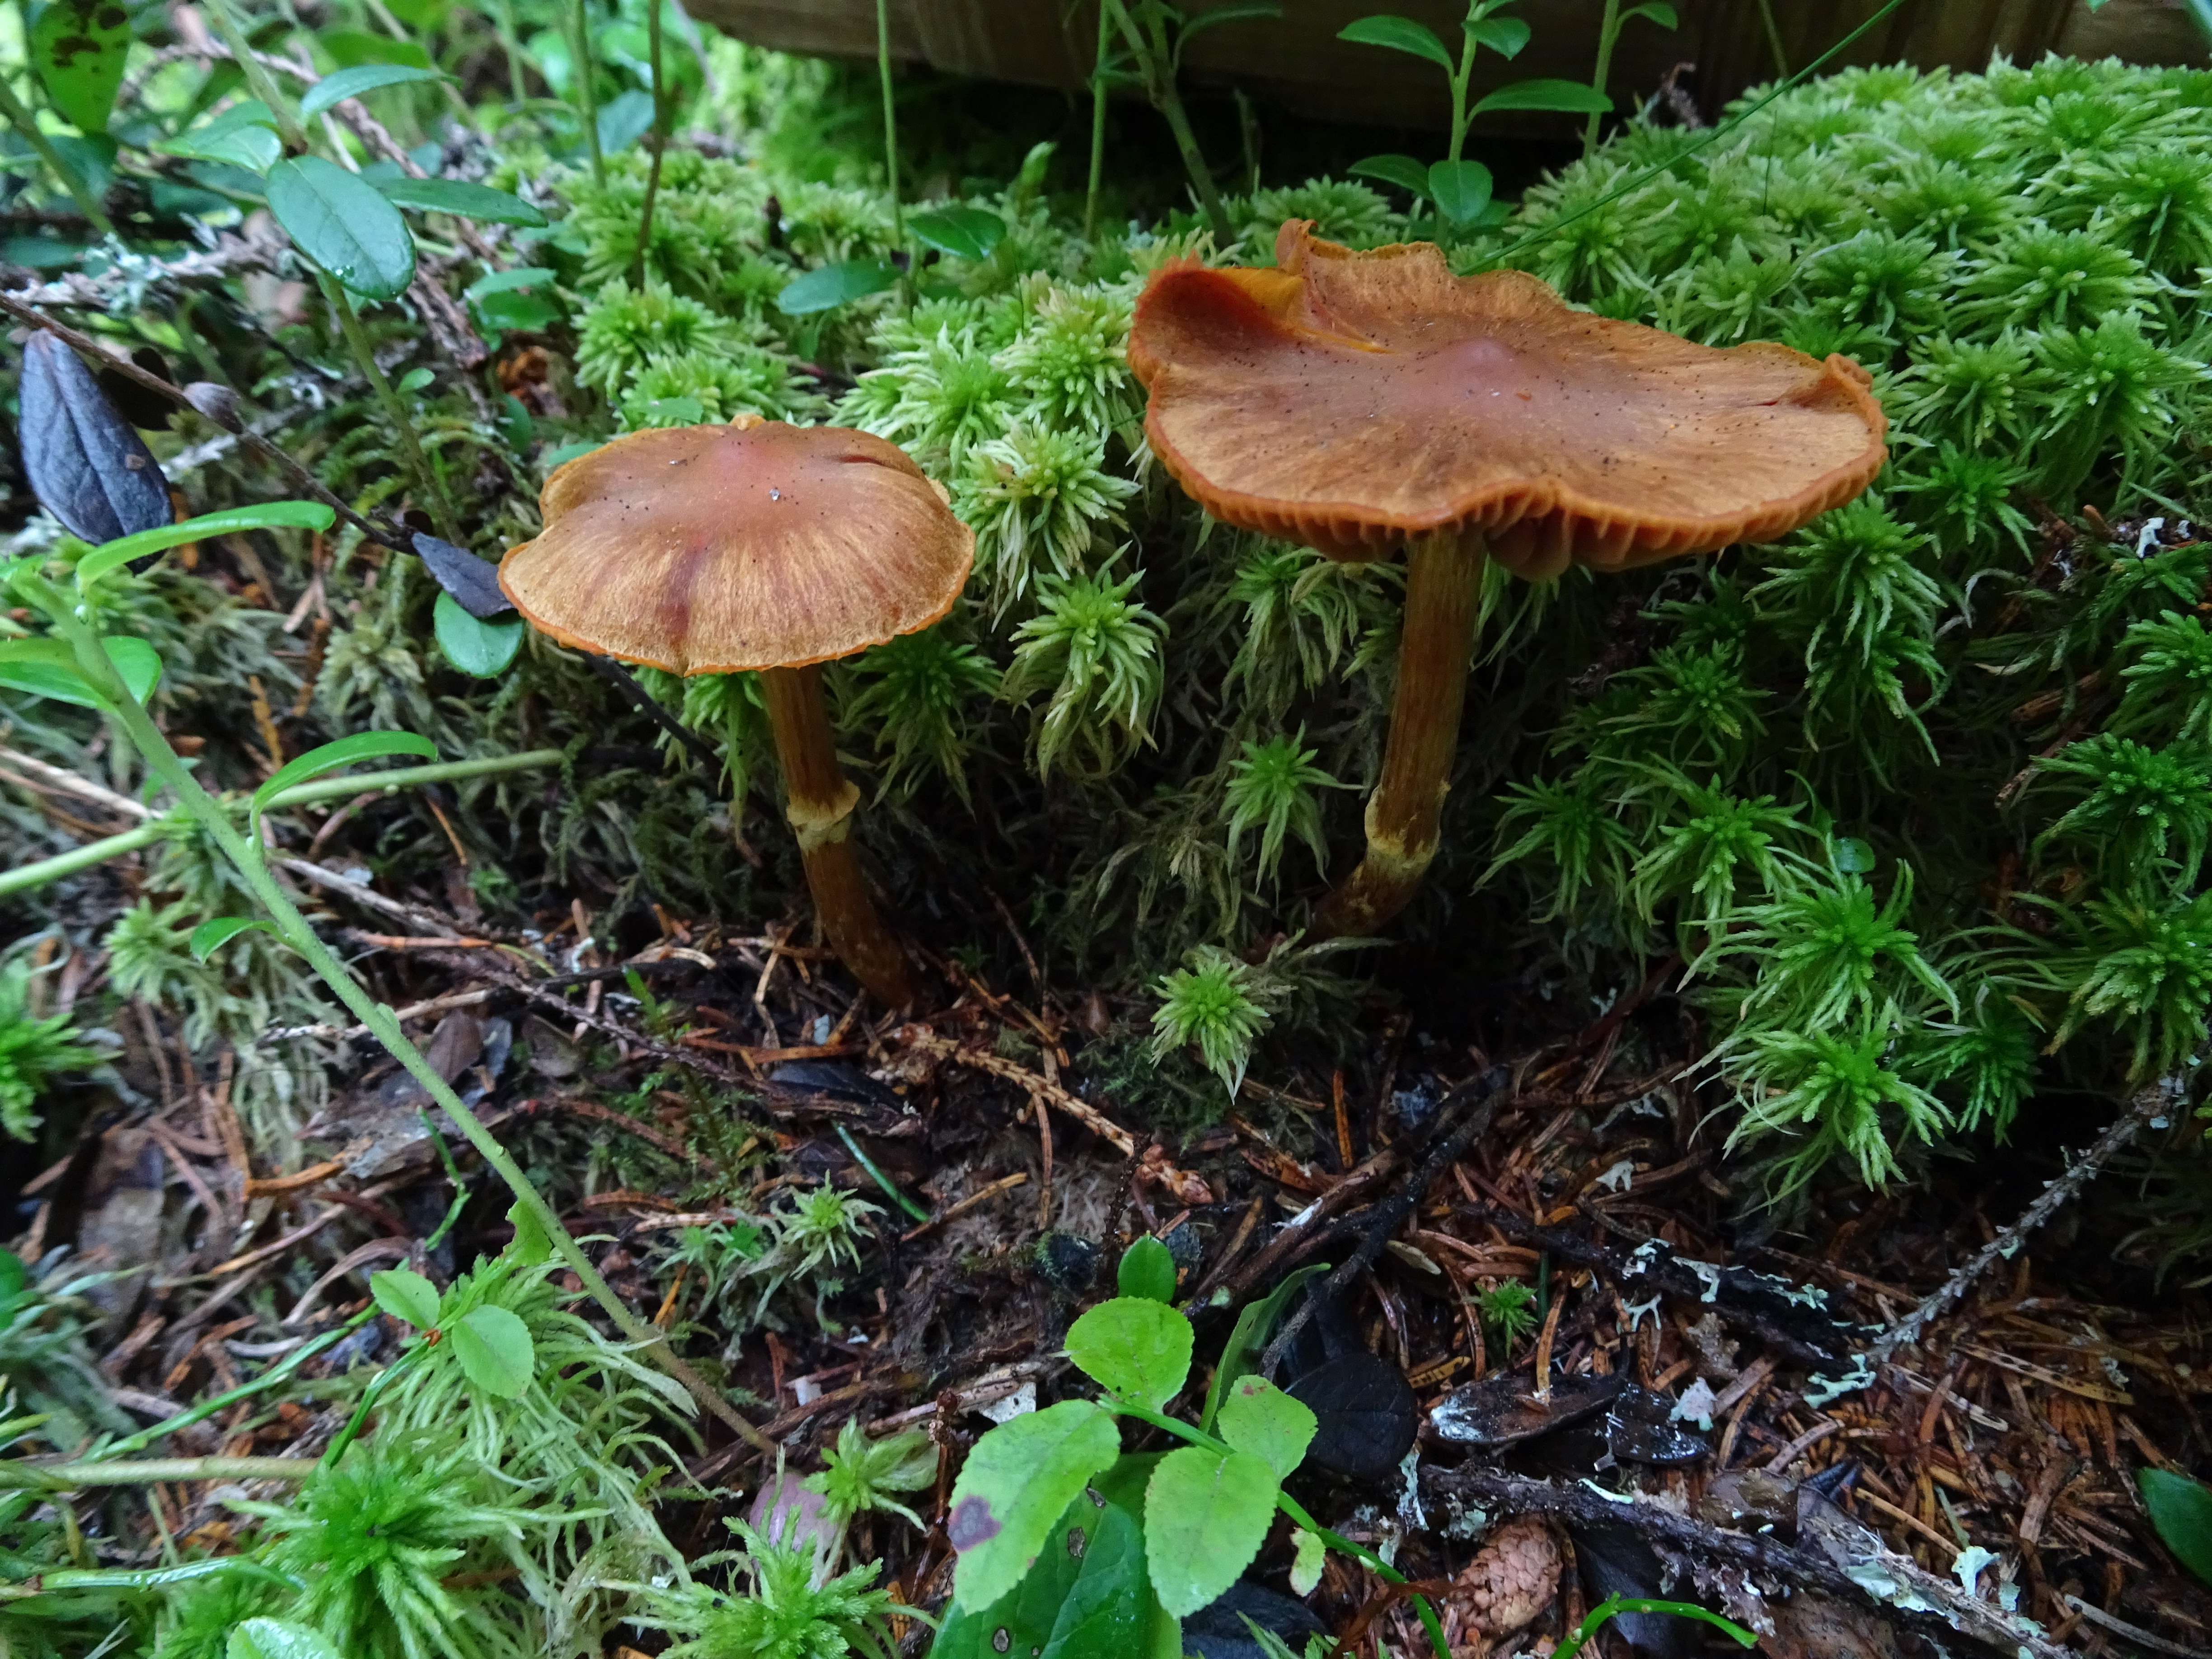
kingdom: Fungi
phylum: Basidiomycota
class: Agaricomycetes
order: Agaricales
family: Cortinariaceae
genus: Cortinarius
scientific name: Cortinarius gentilis
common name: Conifer webcap
